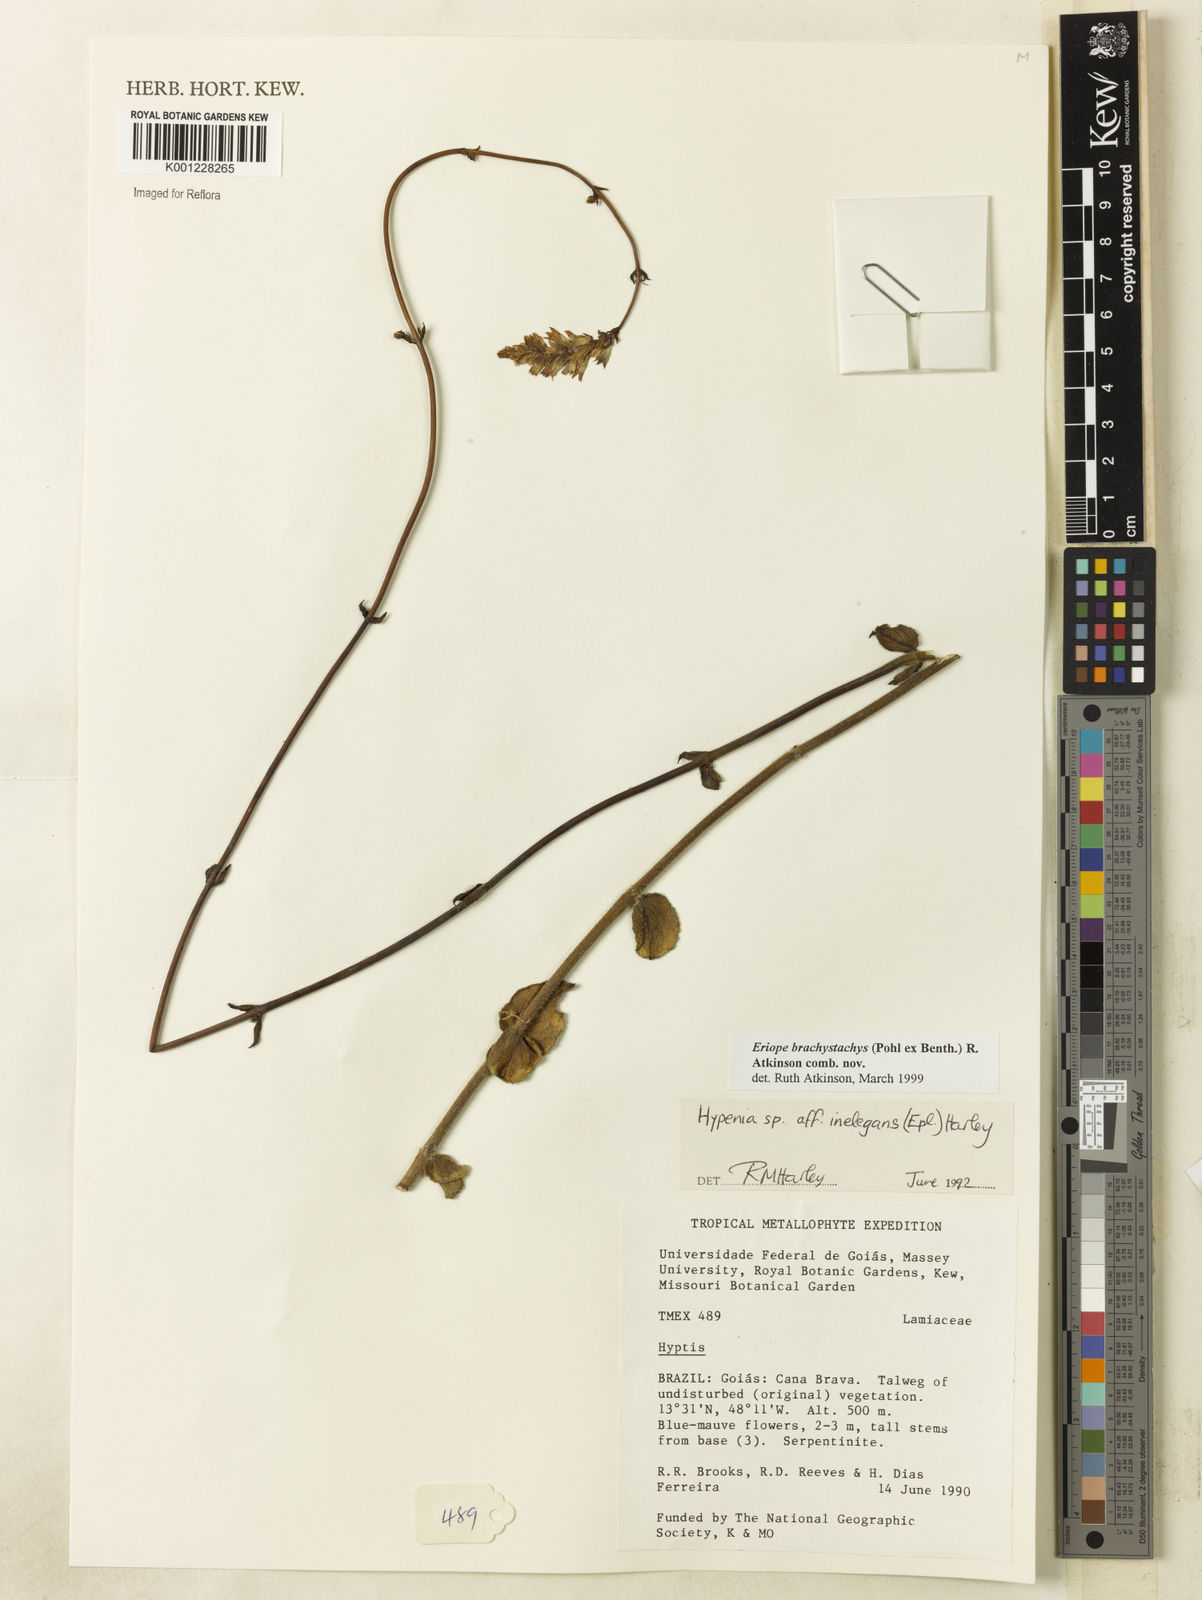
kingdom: Plantae
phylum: Tracheophyta
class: Magnoliopsida
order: Lamiales
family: Lamiaceae
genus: Hypenia
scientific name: Hypenia brachystachys
